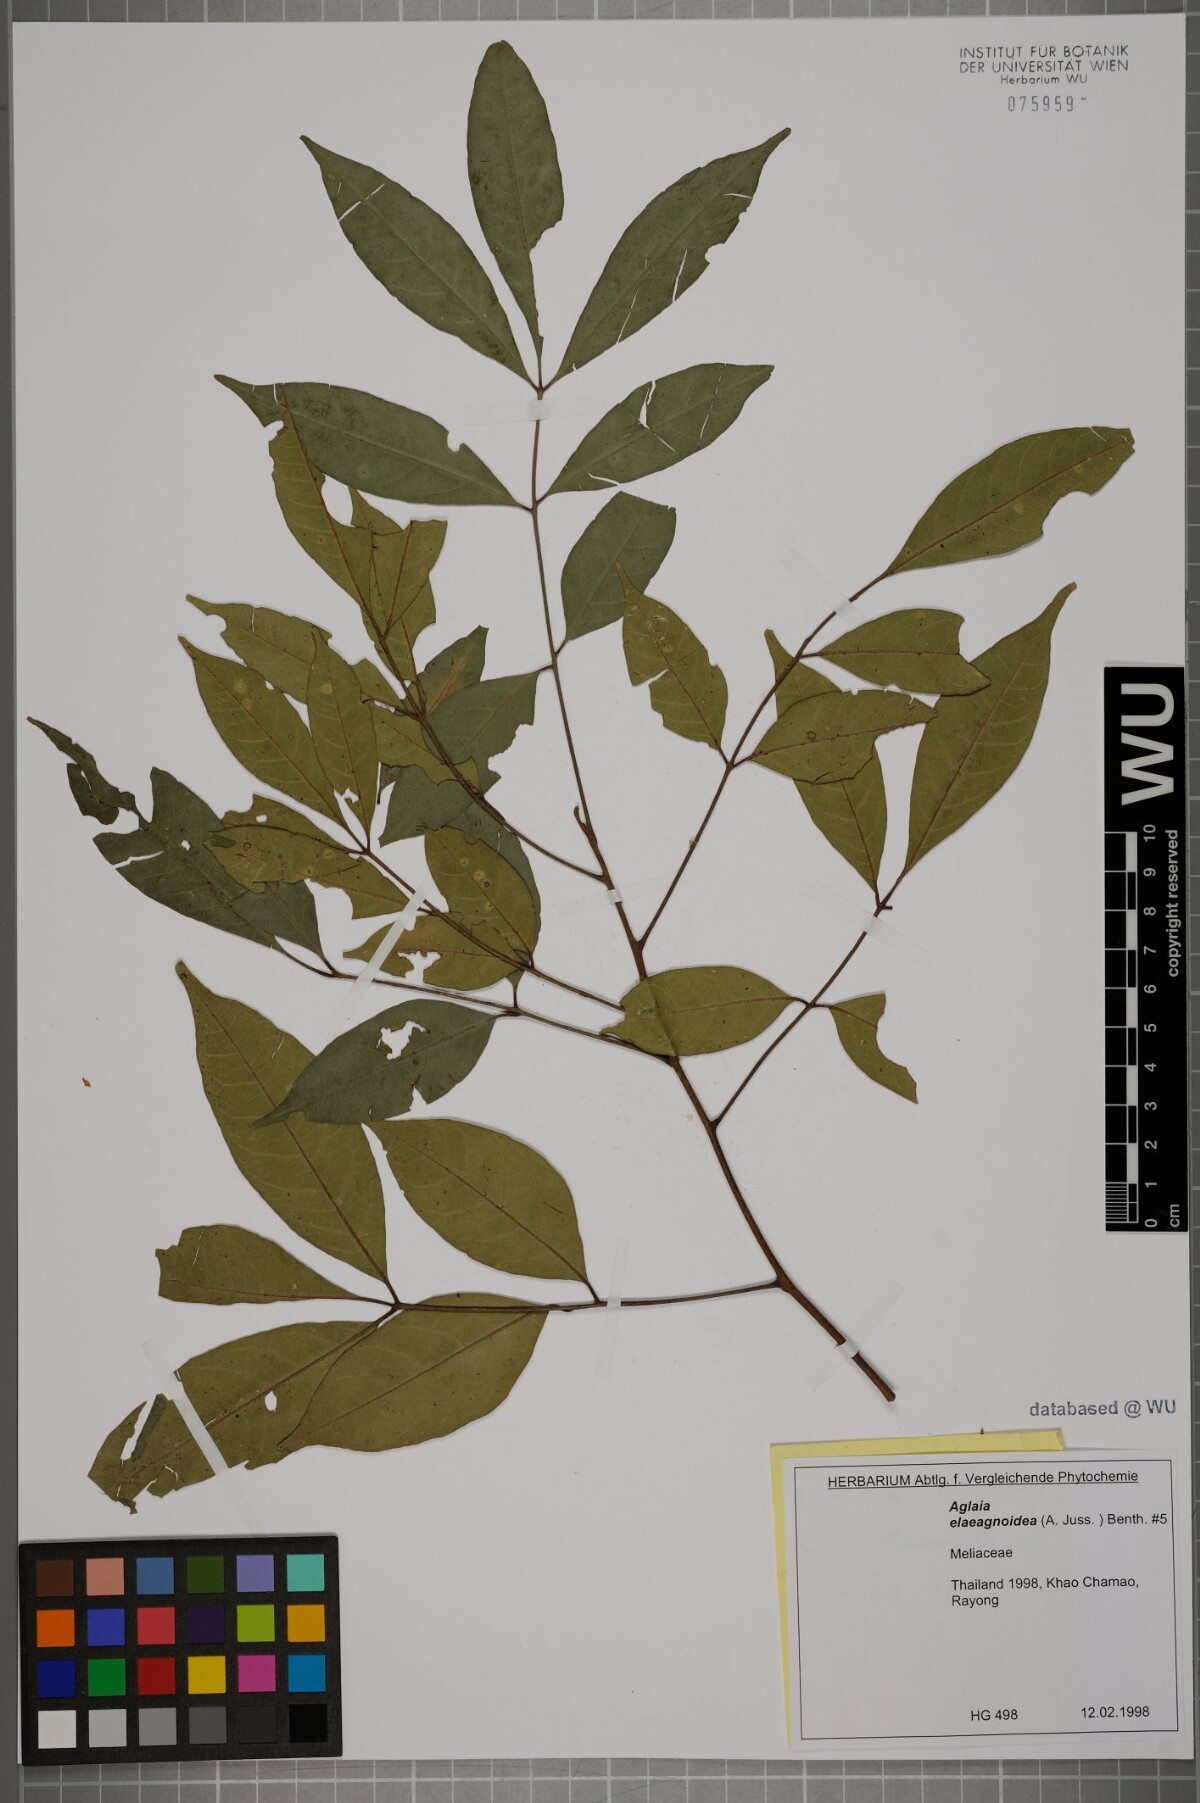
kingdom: Plantae
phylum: Tracheophyta
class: Magnoliopsida
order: Sapindales
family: Meliaceae
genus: Aglaia
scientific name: Aglaia elaeagnoidea
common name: Droopyleaf
